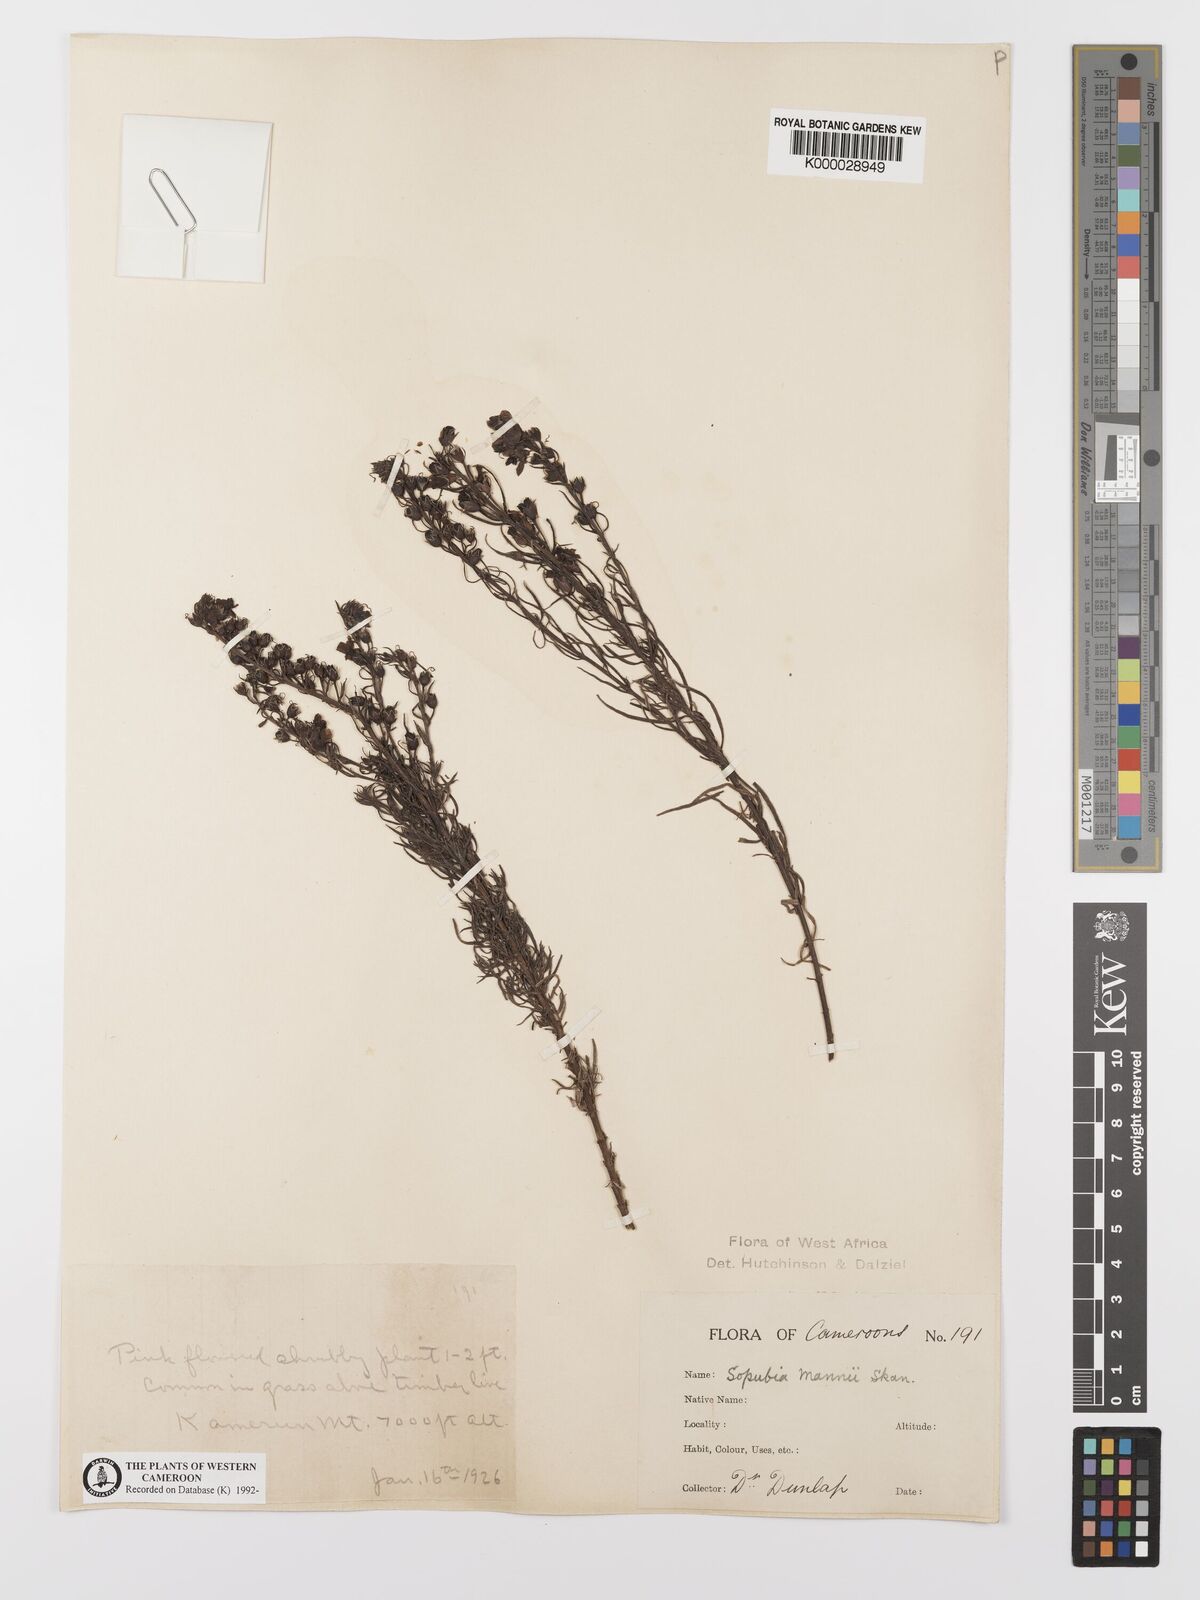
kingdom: Plantae
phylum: Tracheophyta
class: Magnoliopsida
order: Lamiales
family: Orobanchaceae
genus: Sopubia
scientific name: Sopubia mannii
